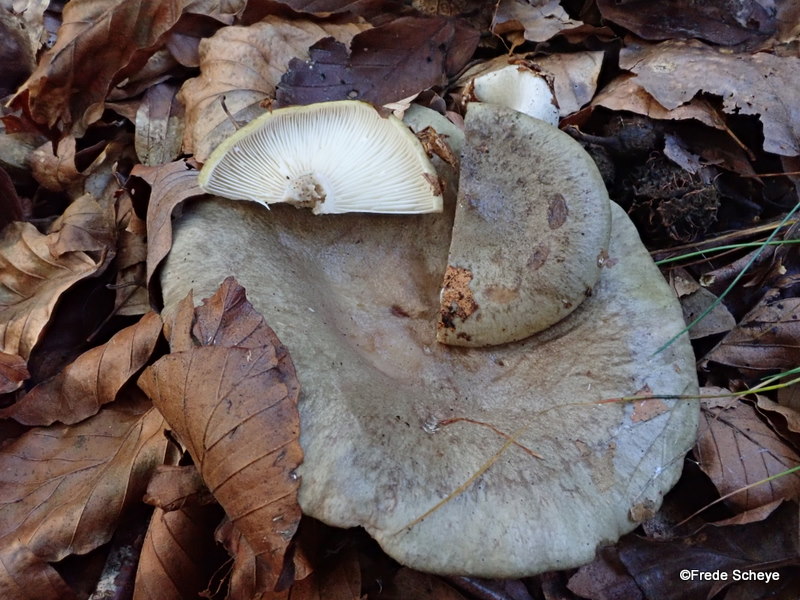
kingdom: Fungi
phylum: Basidiomycota
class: Agaricomycetes
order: Russulales
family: Russulaceae
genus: Lactarius
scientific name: Lactarius blennius
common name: dråbeplettet mælkehat
